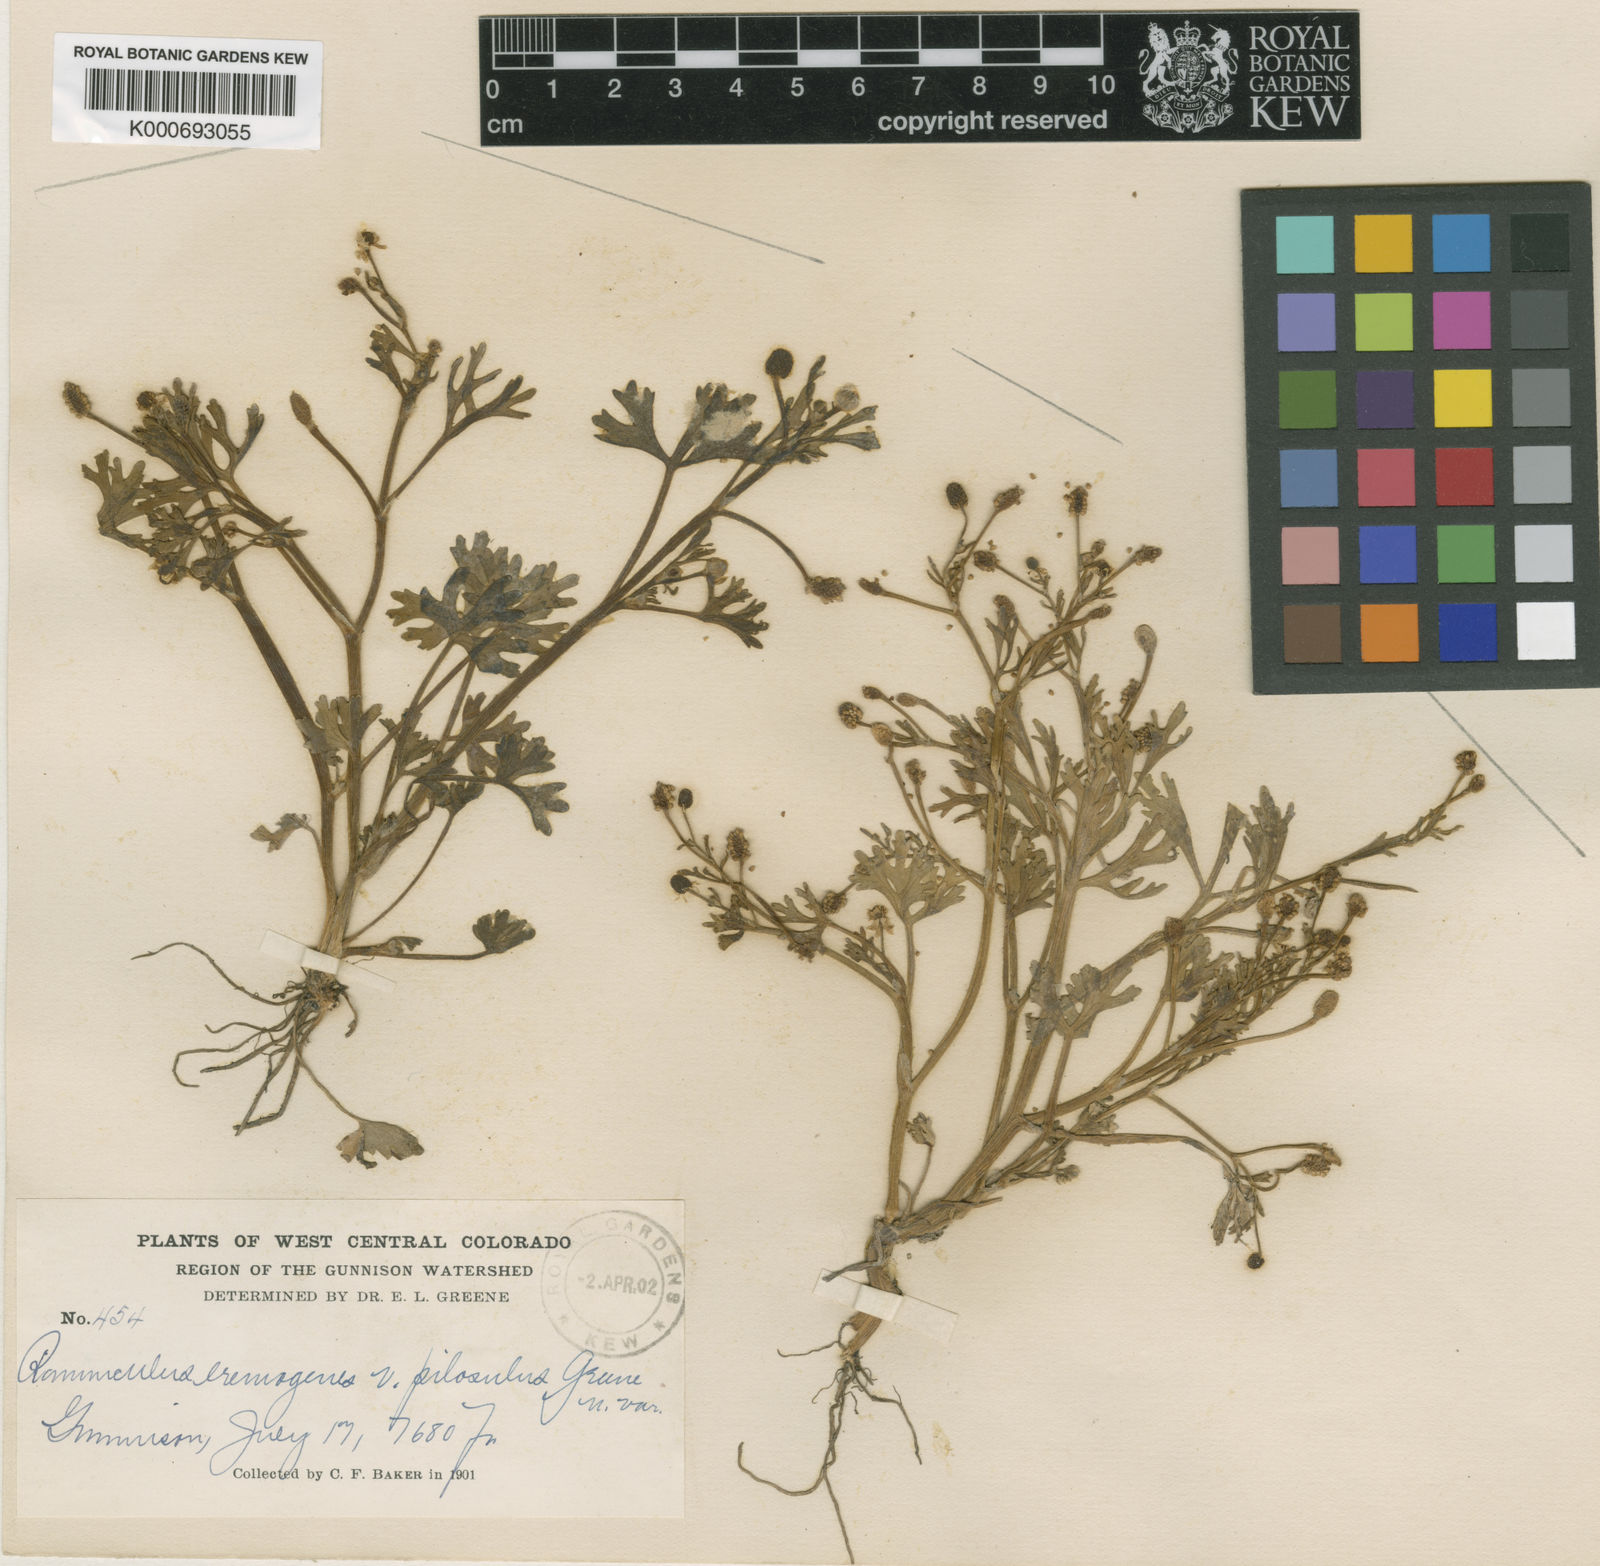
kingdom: Plantae
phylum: Tracheophyta
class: Magnoliopsida
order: Ranunculales
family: Ranunculaceae
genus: Ranunculus
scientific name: Ranunculus sceleratus
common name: Celery-leaved buttercup
